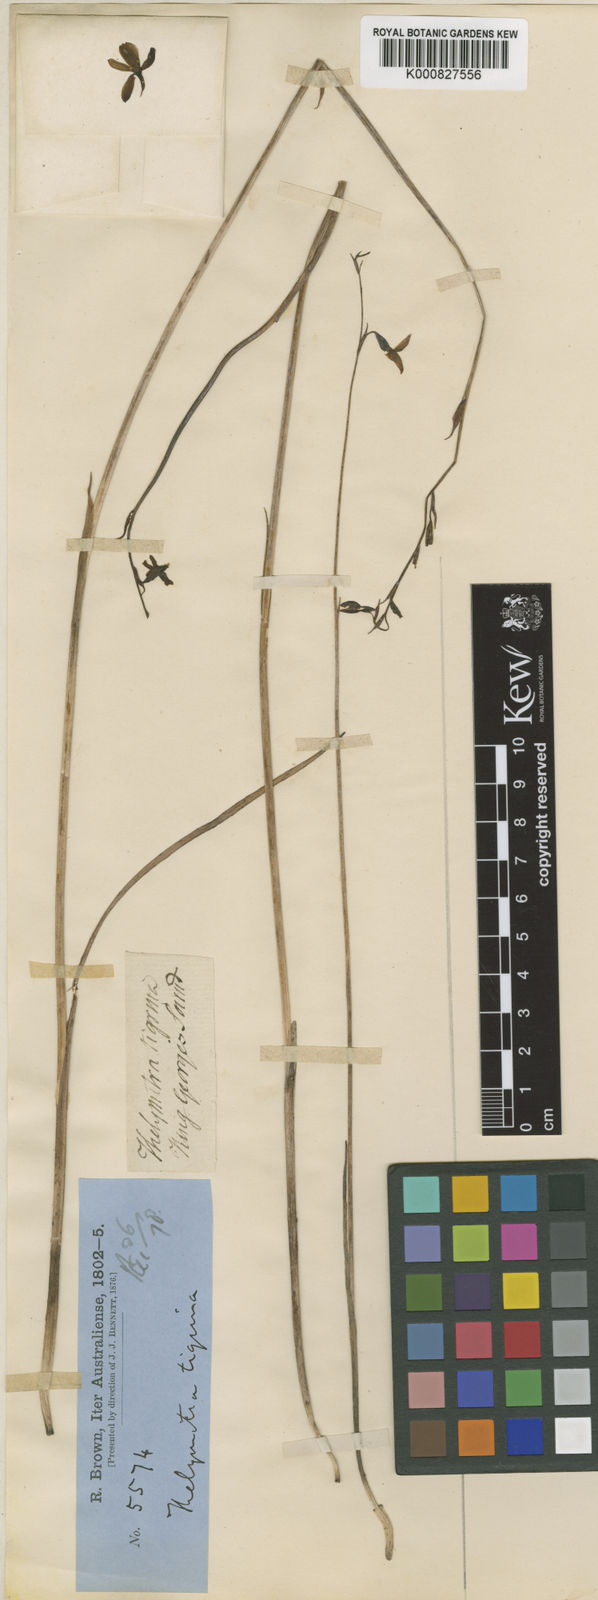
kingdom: Plantae
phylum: Tracheophyta
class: Liliopsida
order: Asparagales
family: Orchidaceae
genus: Thelymitra
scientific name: Thelymitra tigrina
